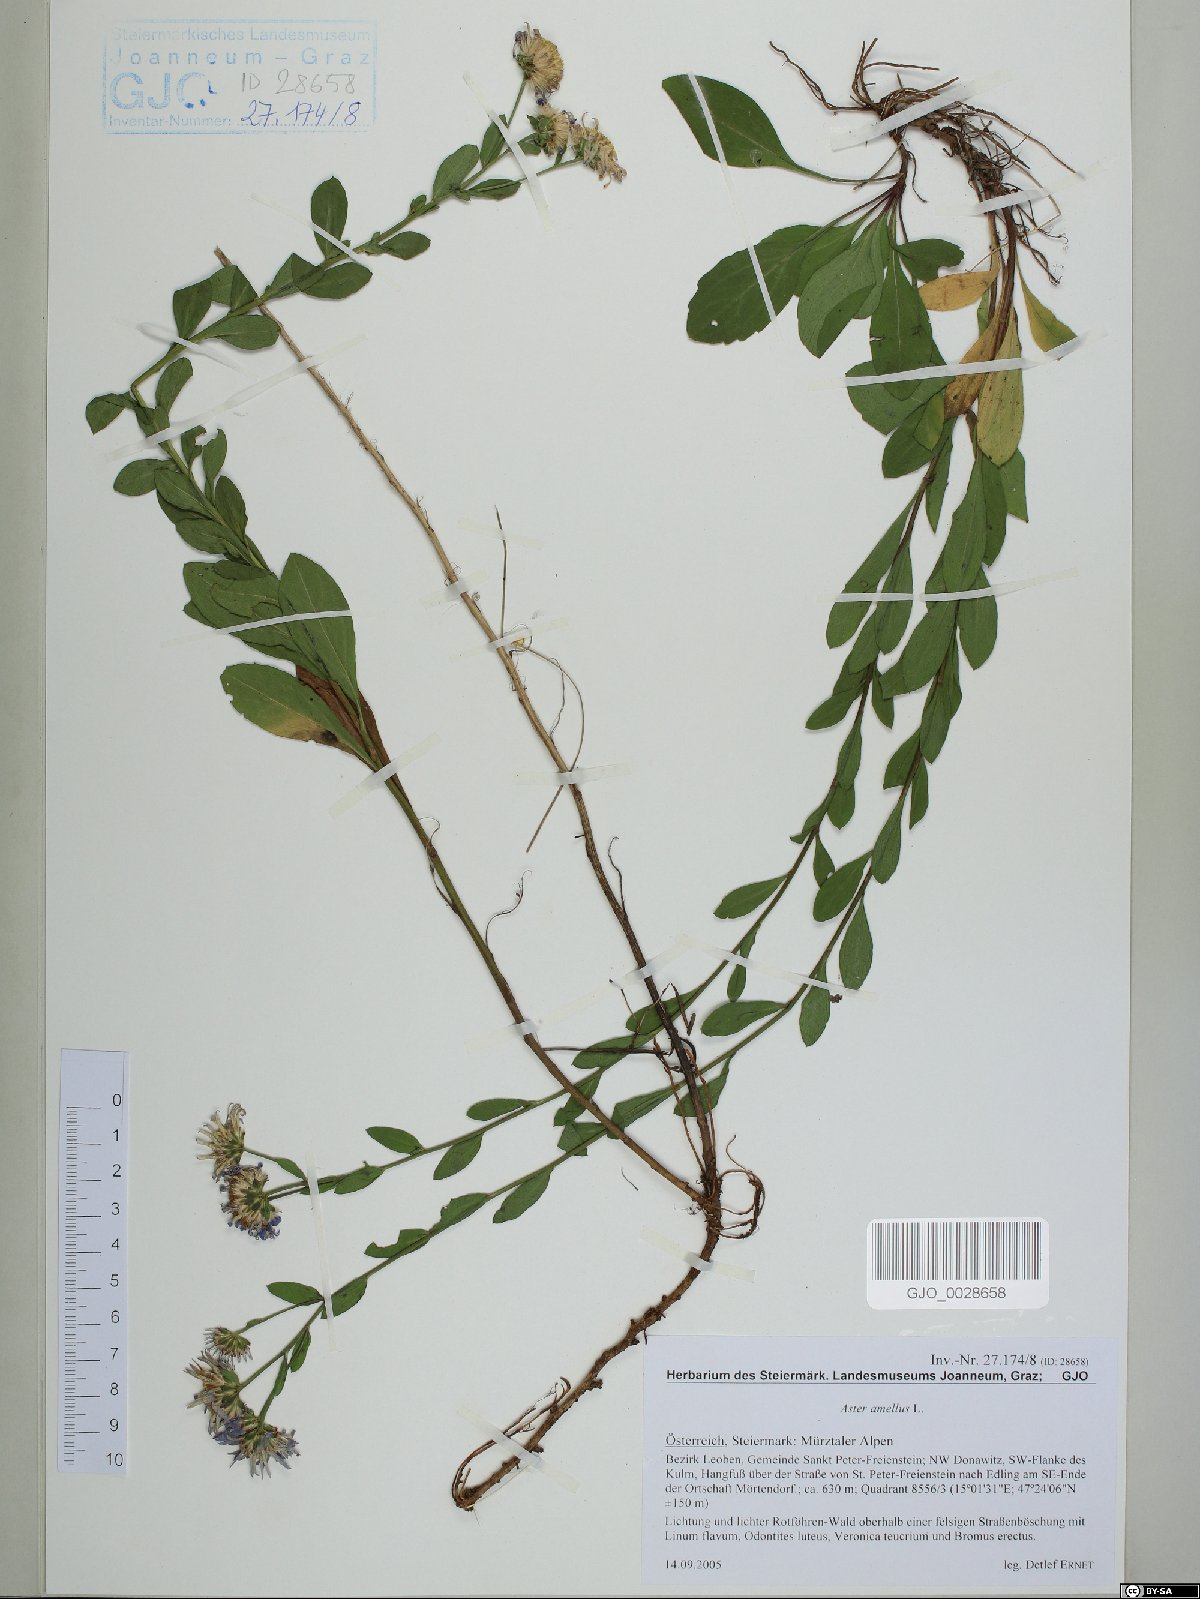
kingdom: Plantae
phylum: Tracheophyta
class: Magnoliopsida
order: Asterales
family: Asteraceae
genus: Aster
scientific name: Aster amellus
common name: European michaelmas daisy
